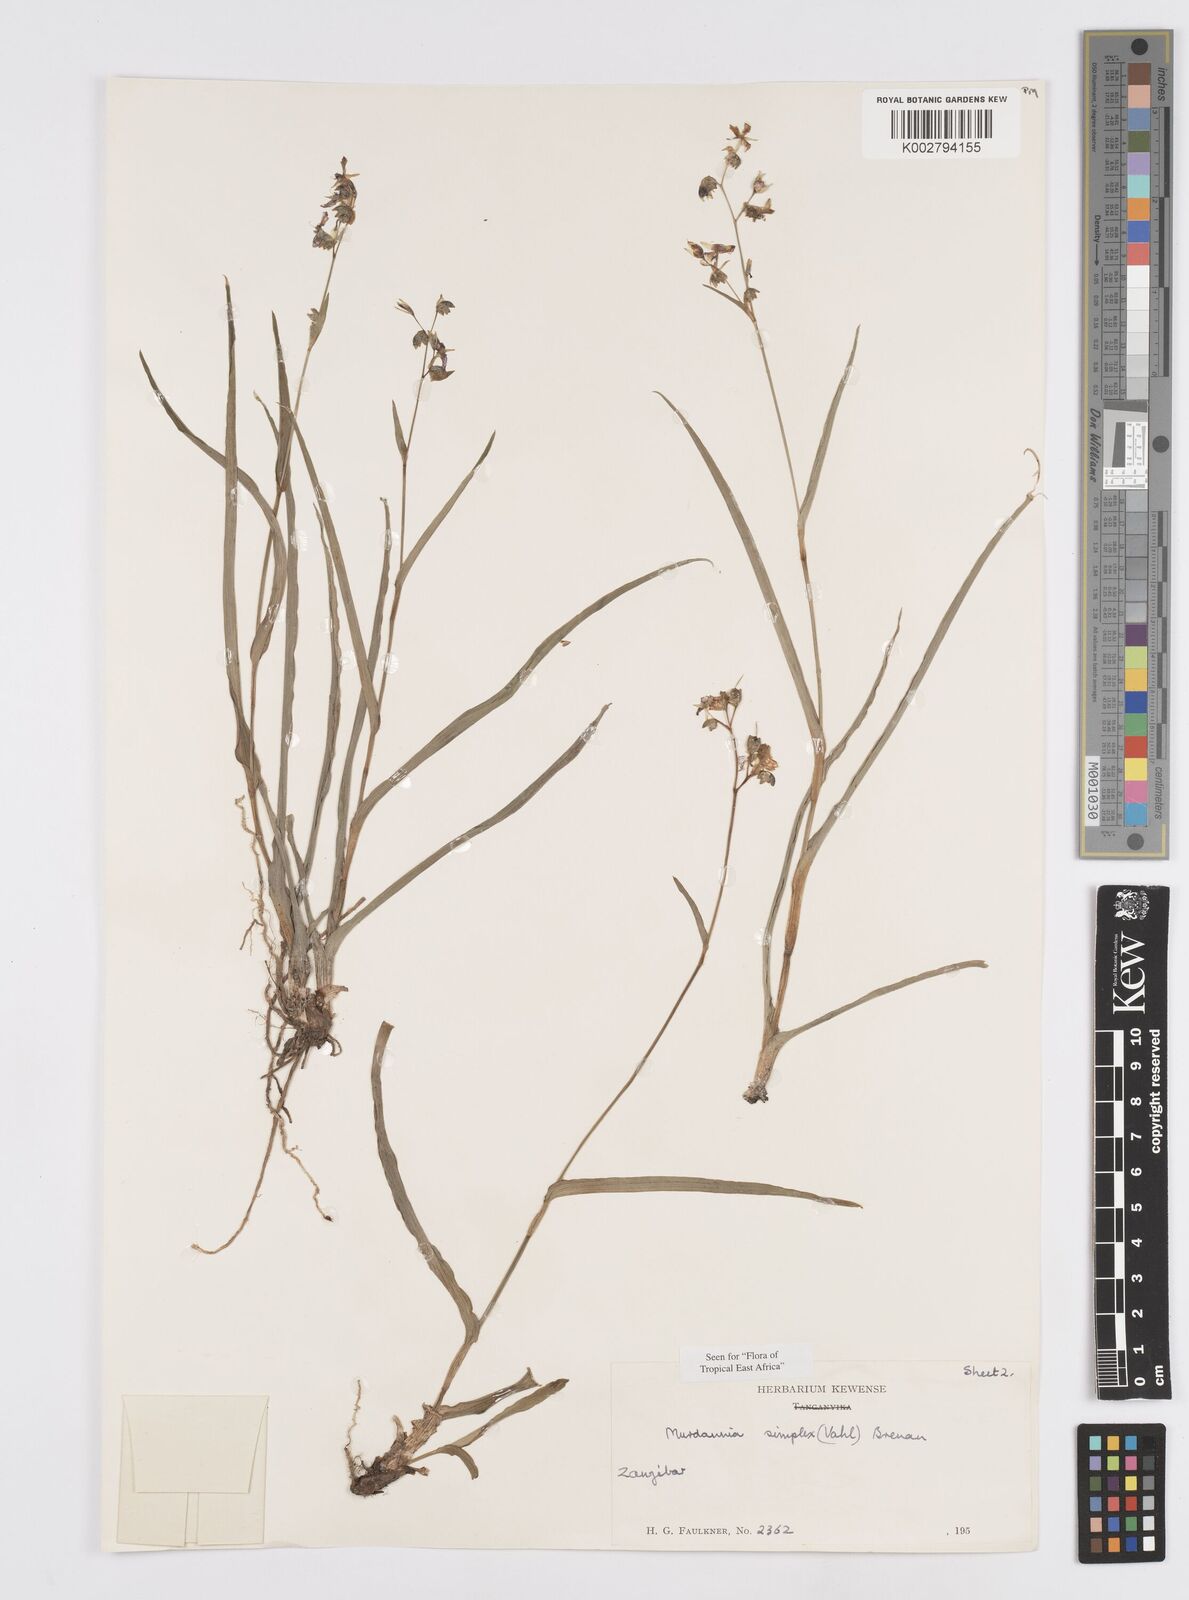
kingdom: Plantae
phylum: Tracheophyta
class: Liliopsida
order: Commelinales
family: Commelinaceae
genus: Murdannia
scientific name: Murdannia simplex
